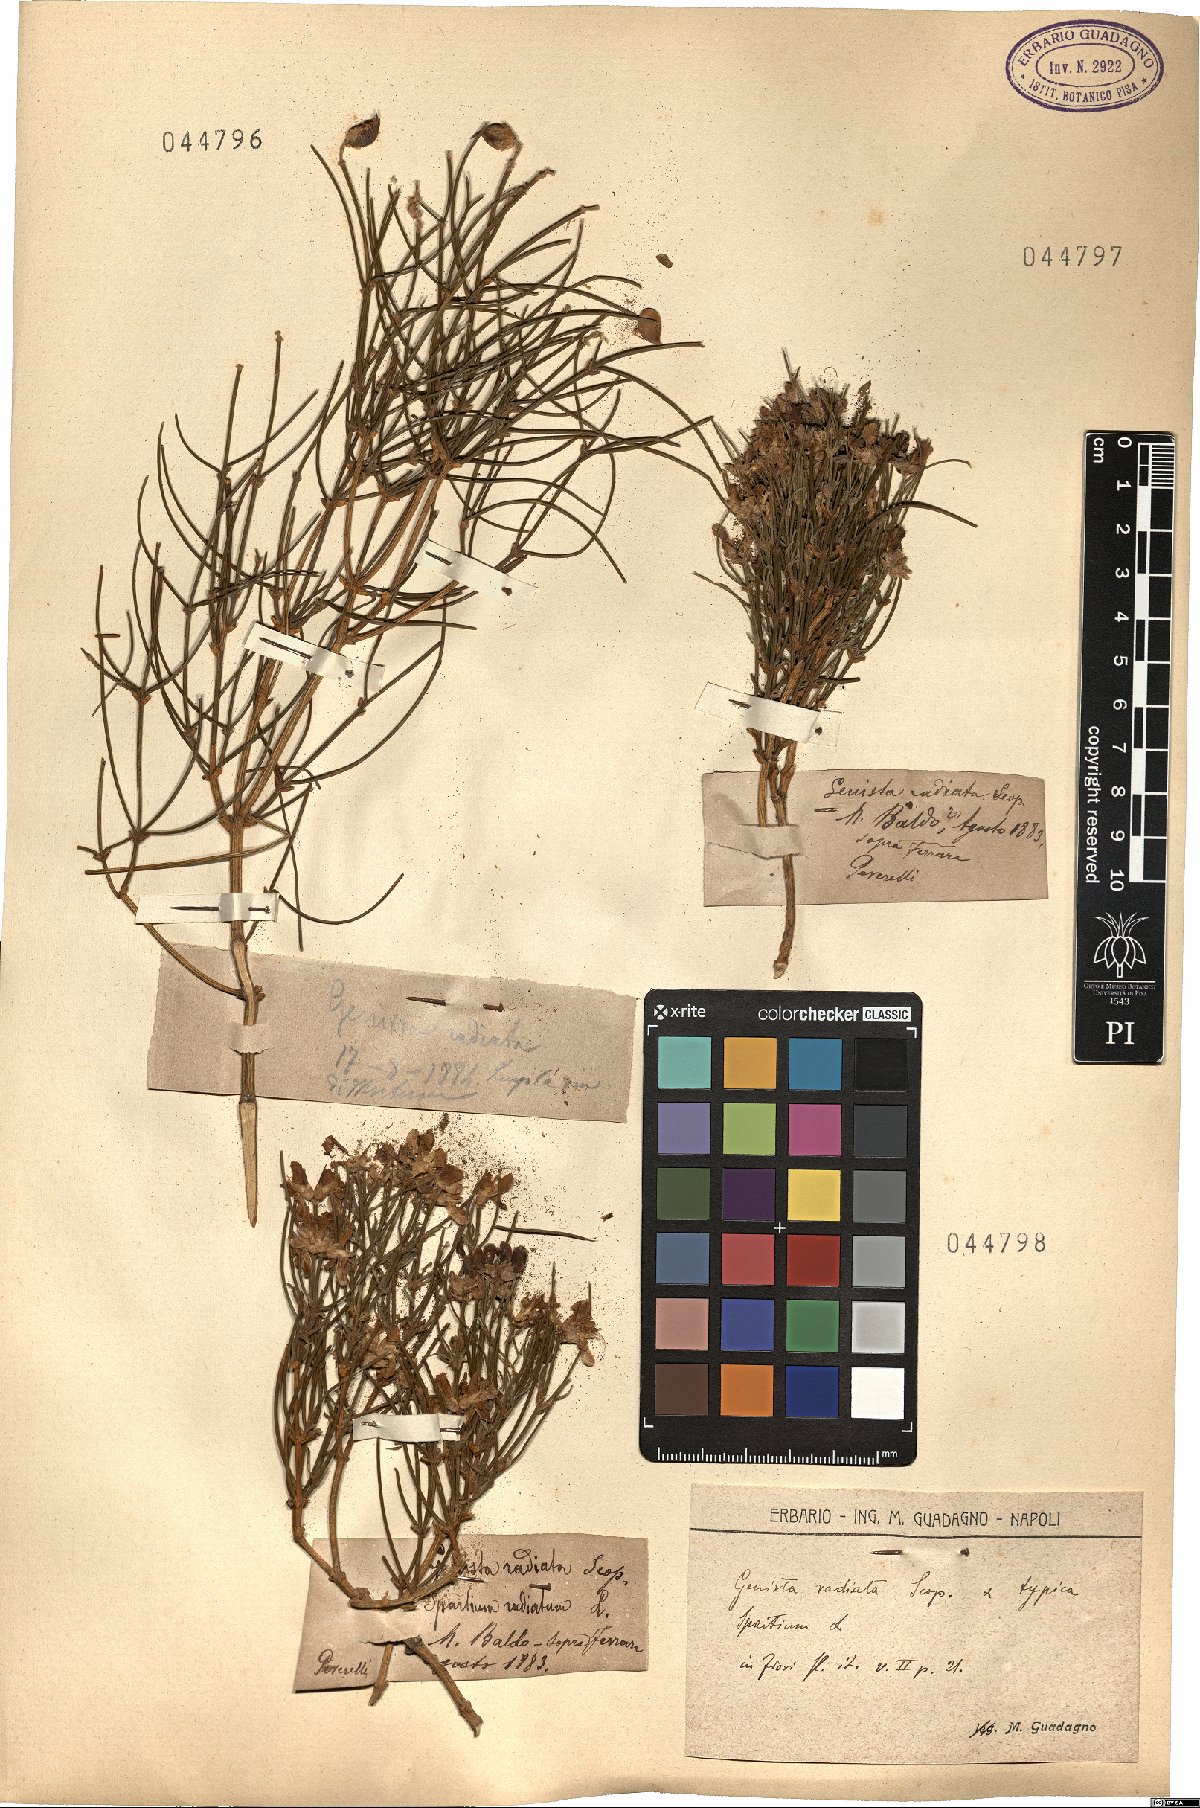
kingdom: Plantae
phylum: Tracheophyta
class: Magnoliopsida
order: Fabales
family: Fabaceae
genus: Genista
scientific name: Genista radiata
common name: Southern greenweed
